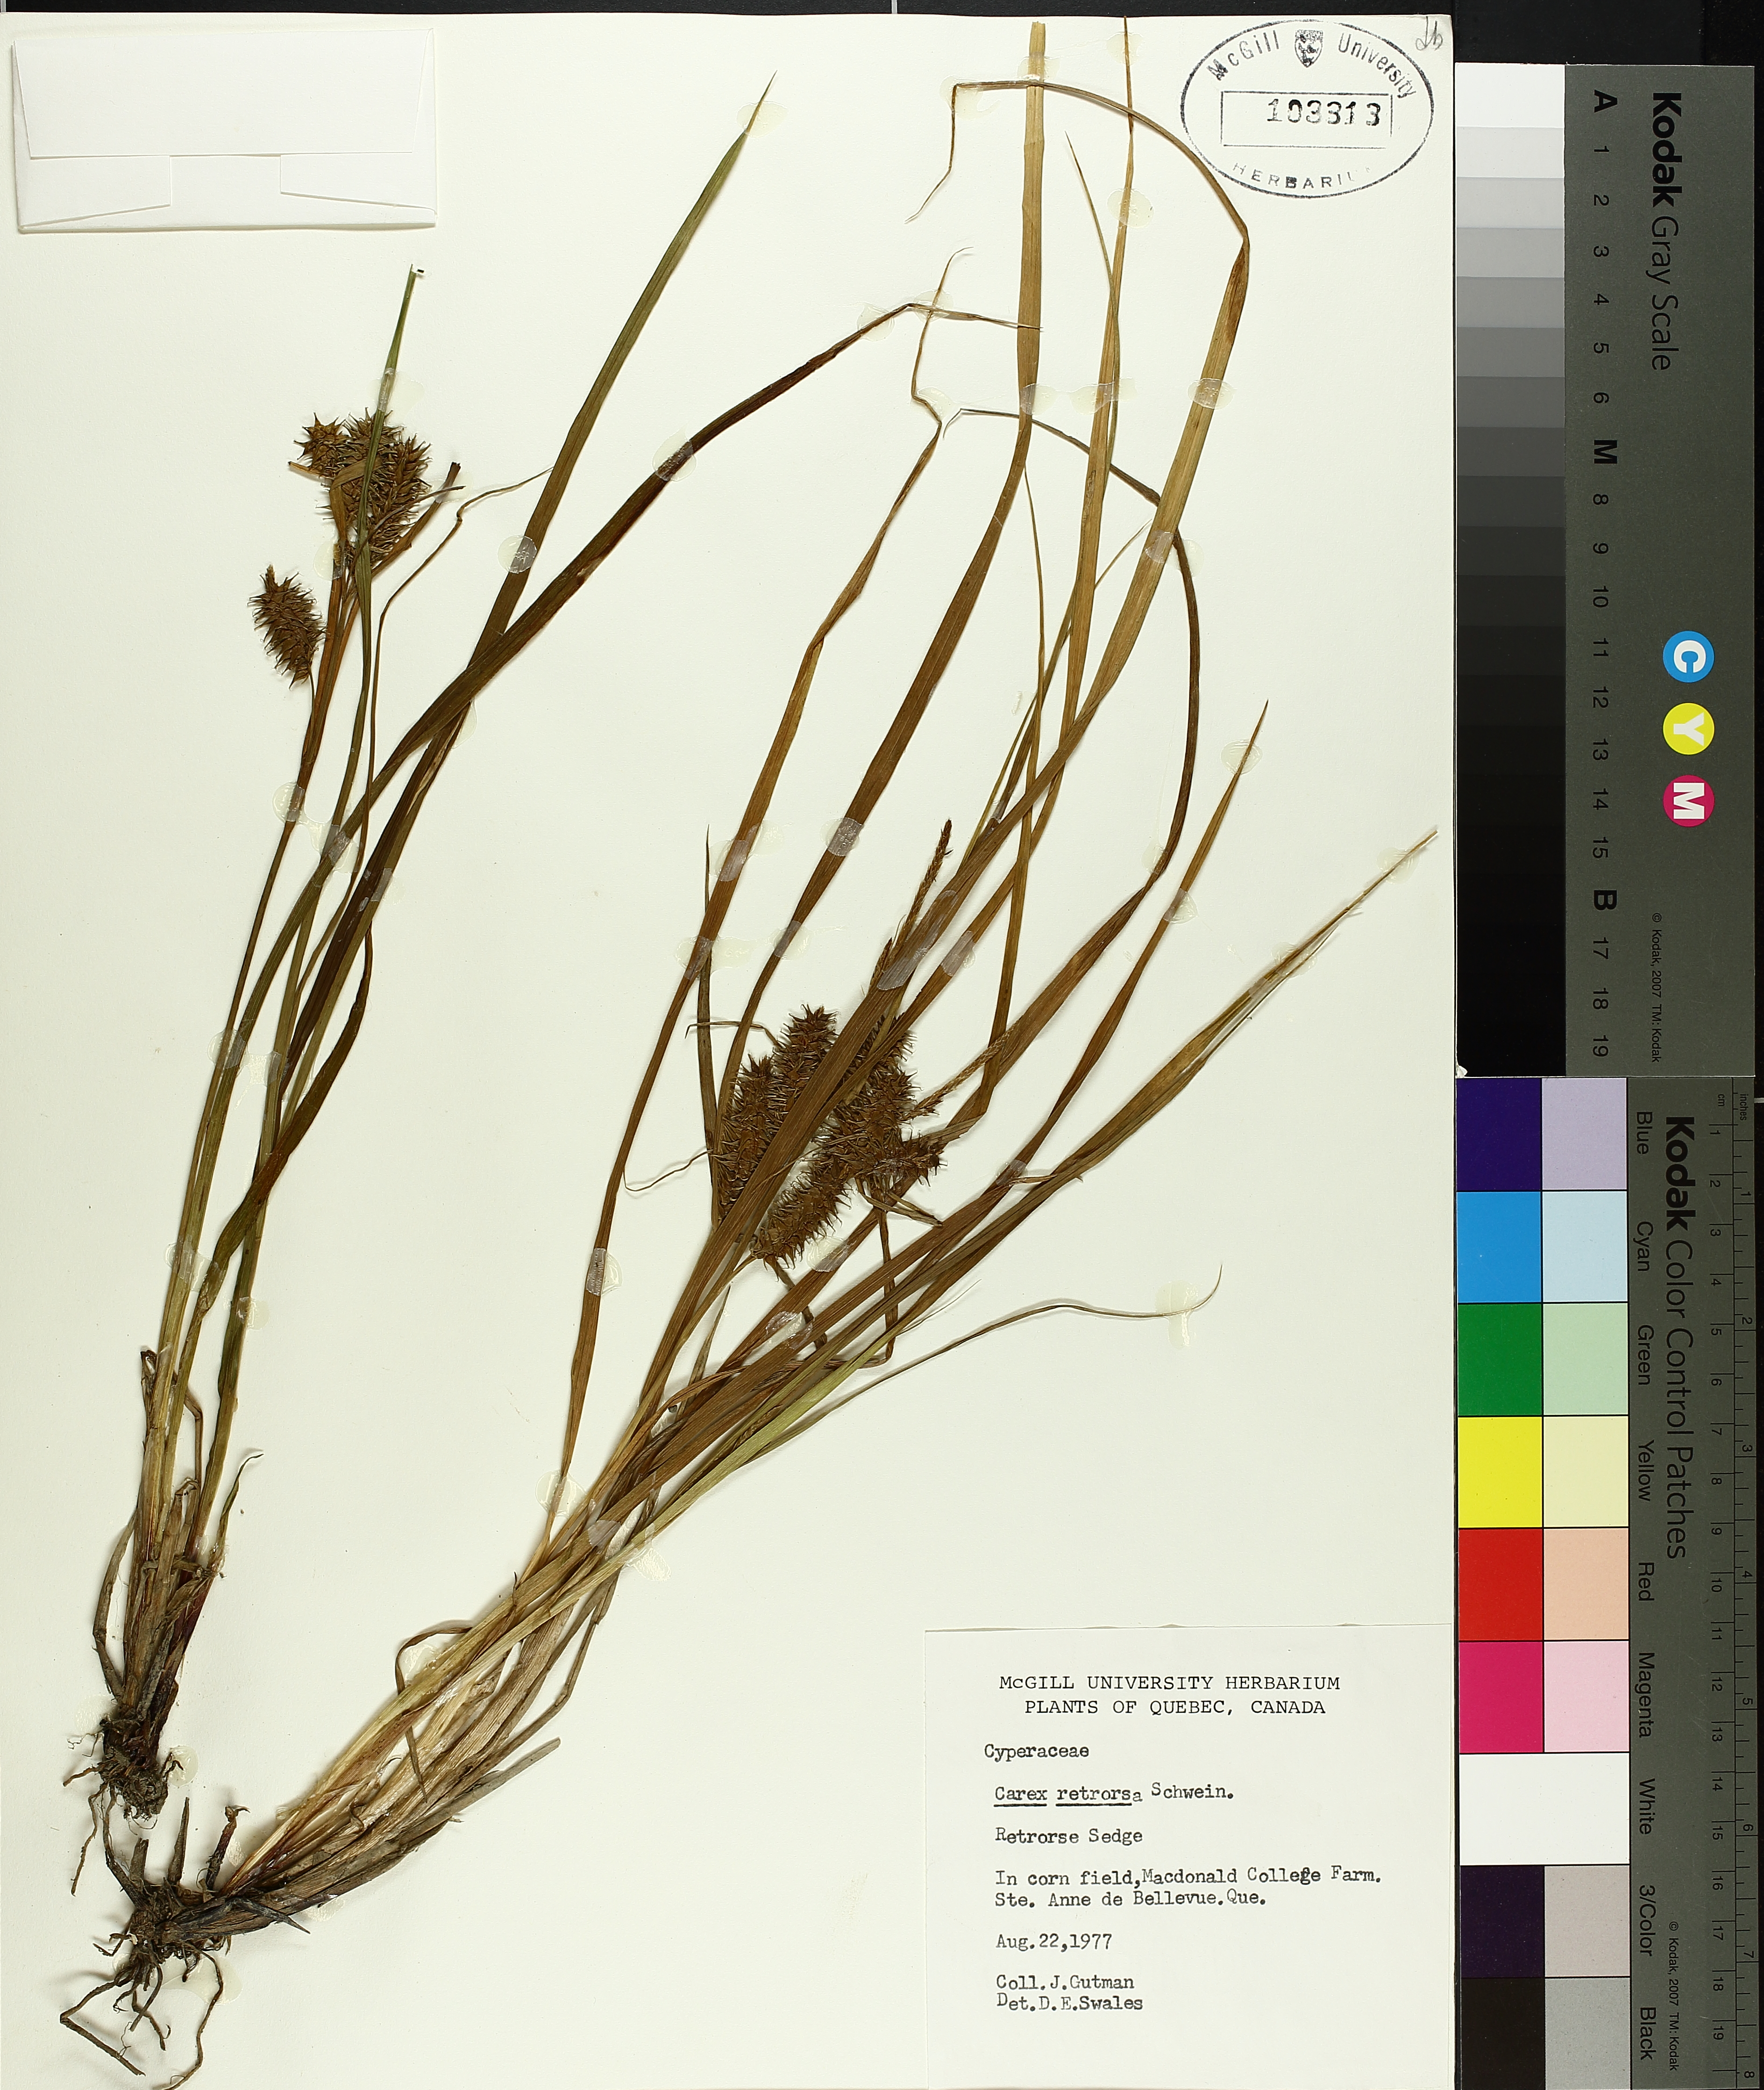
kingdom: Plantae
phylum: Tracheophyta
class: Liliopsida
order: Poales
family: Cyperaceae
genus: Carex
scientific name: Carex retrorsa
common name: Knot-sheath sedge
